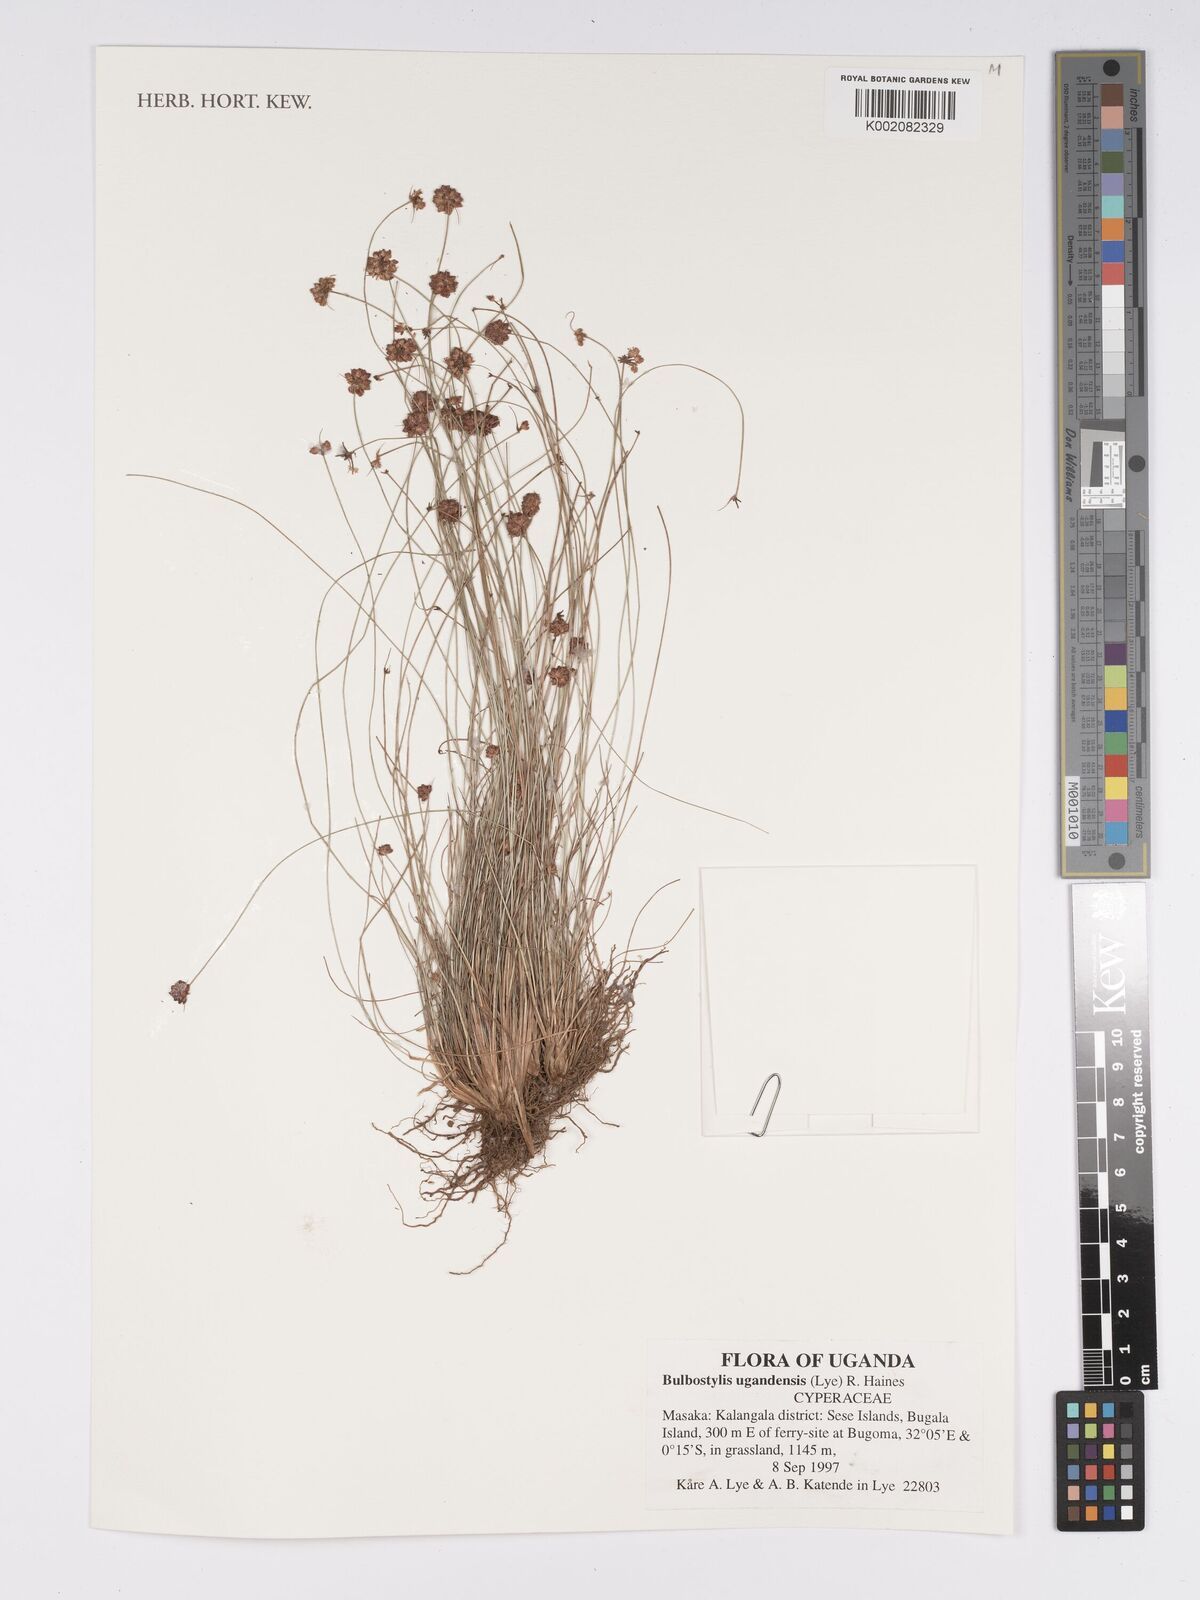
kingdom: Plantae
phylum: Tracheophyta
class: Liliopsida
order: Poales
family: Cyperaceae
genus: Bulbostylis
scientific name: Bulbostylis ugandensis
